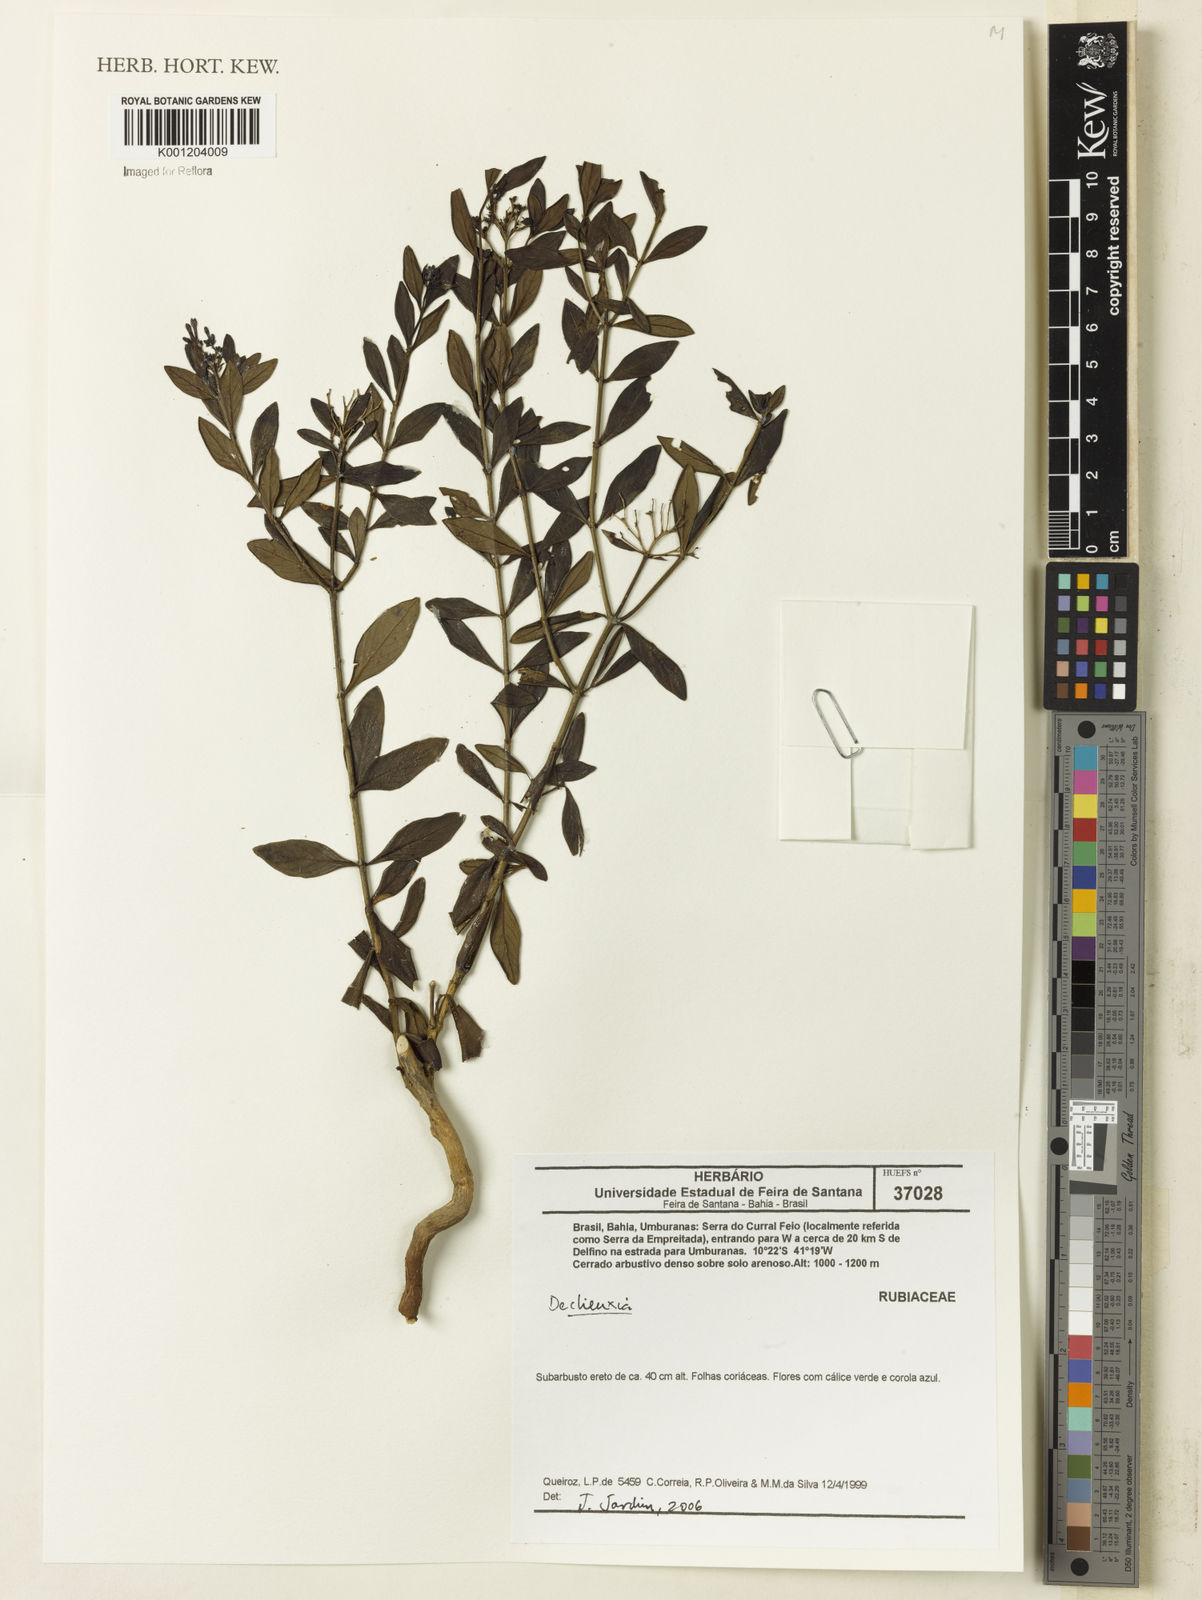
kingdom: Plantae
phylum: Tracheophyta
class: Magnoliopsida
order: Gentianales
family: Rubiaceae
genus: Declieuxia
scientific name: Declieuxia
